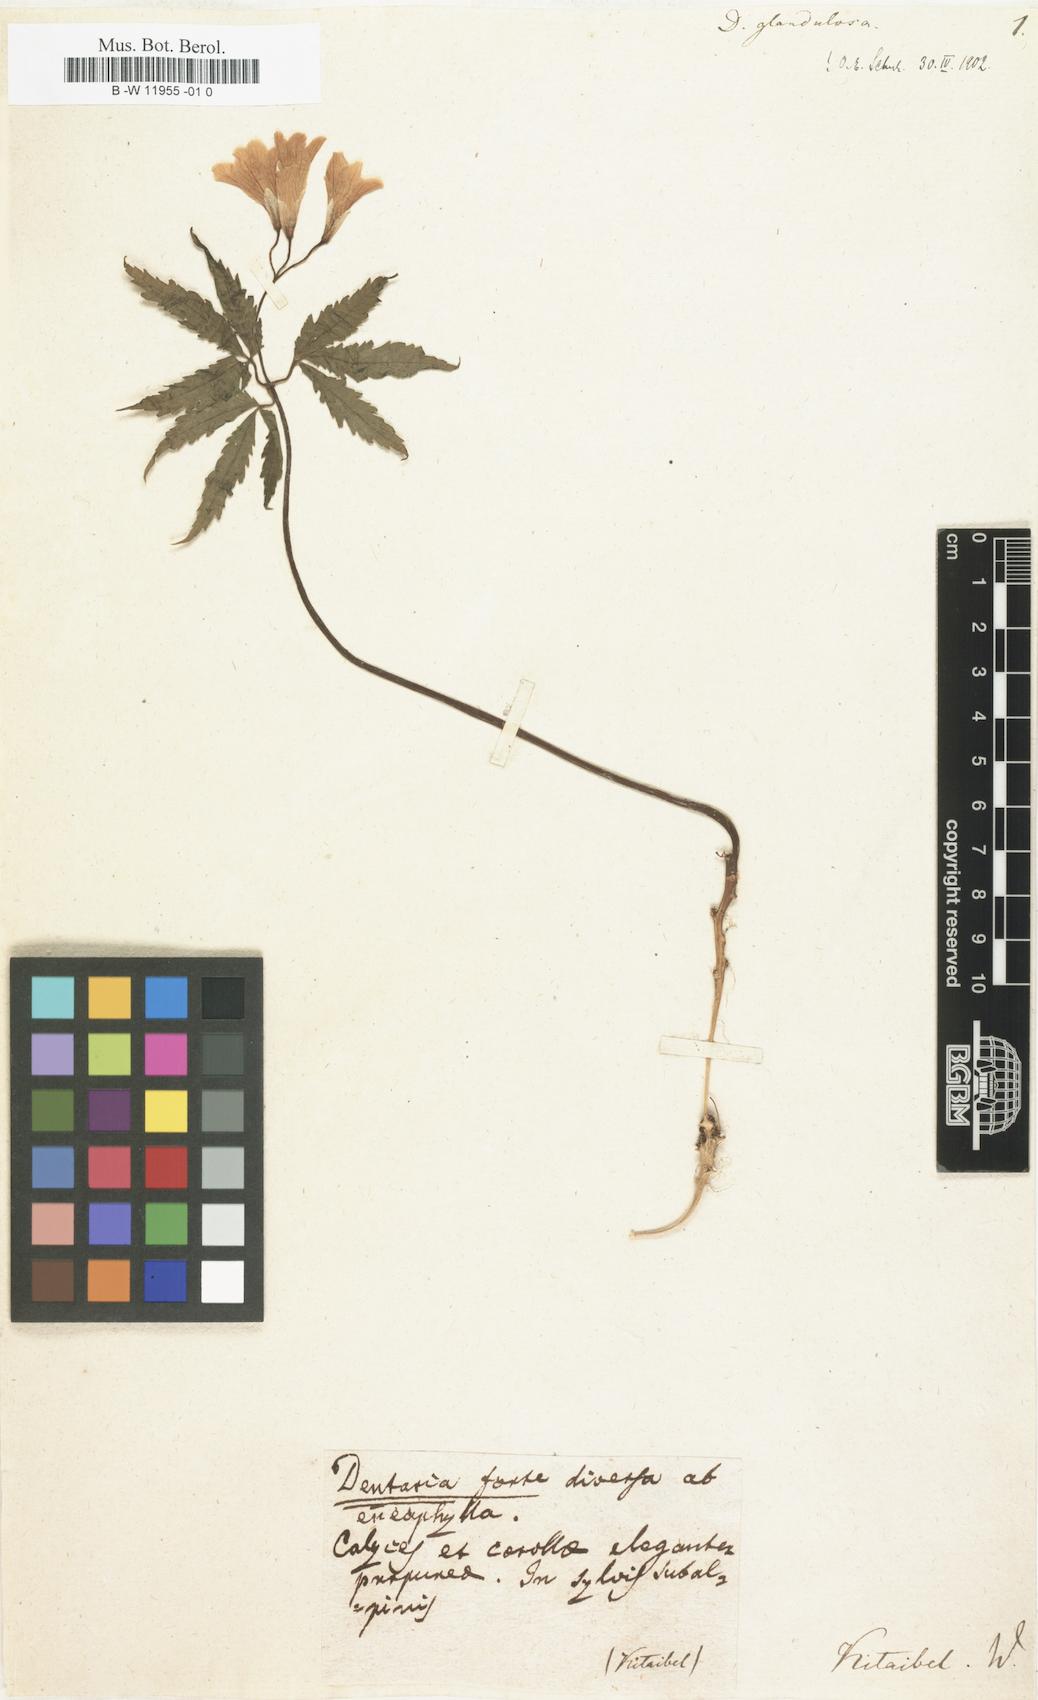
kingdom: Plantae
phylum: Tracheophyta
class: Magnoliopsida
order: Brassicales
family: Brassicaceae
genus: Cardamine
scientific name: Cardamine glanduligera
